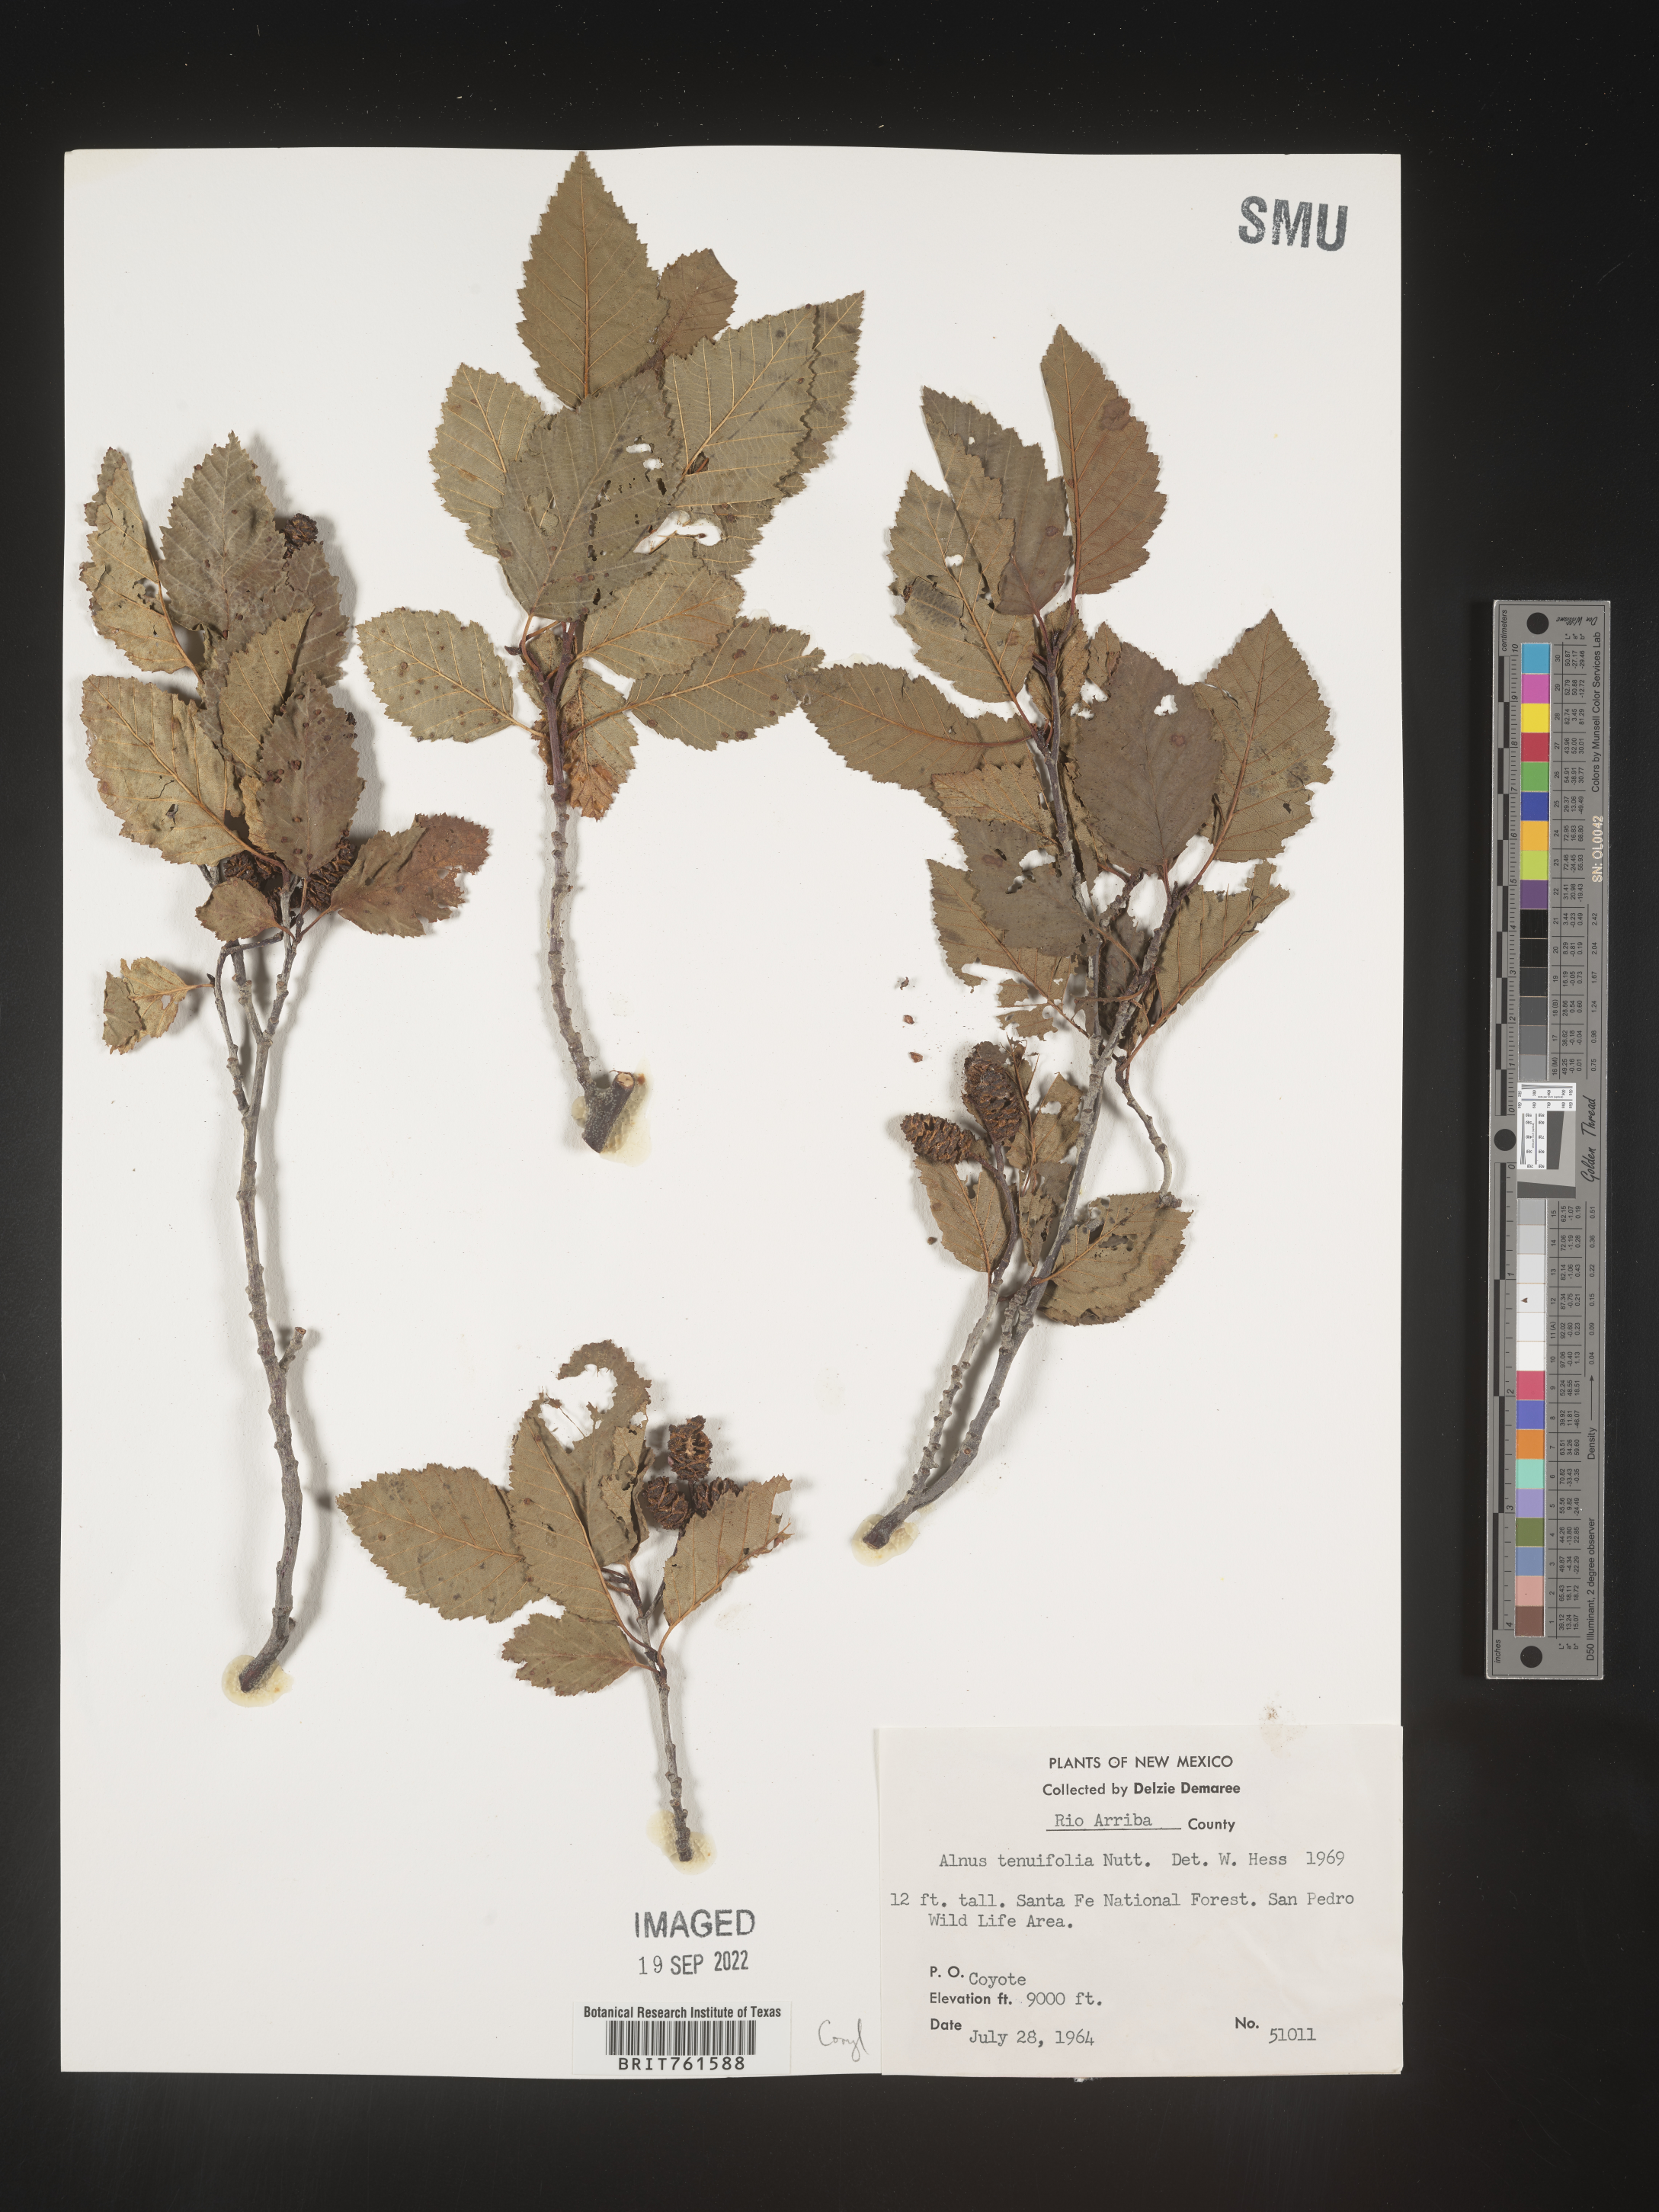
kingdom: Plantae
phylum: Tracheophyta
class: Magnoliopsida
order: Fagales
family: Betulaceae
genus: Alnus
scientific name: Alnus incana
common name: Grey alder
